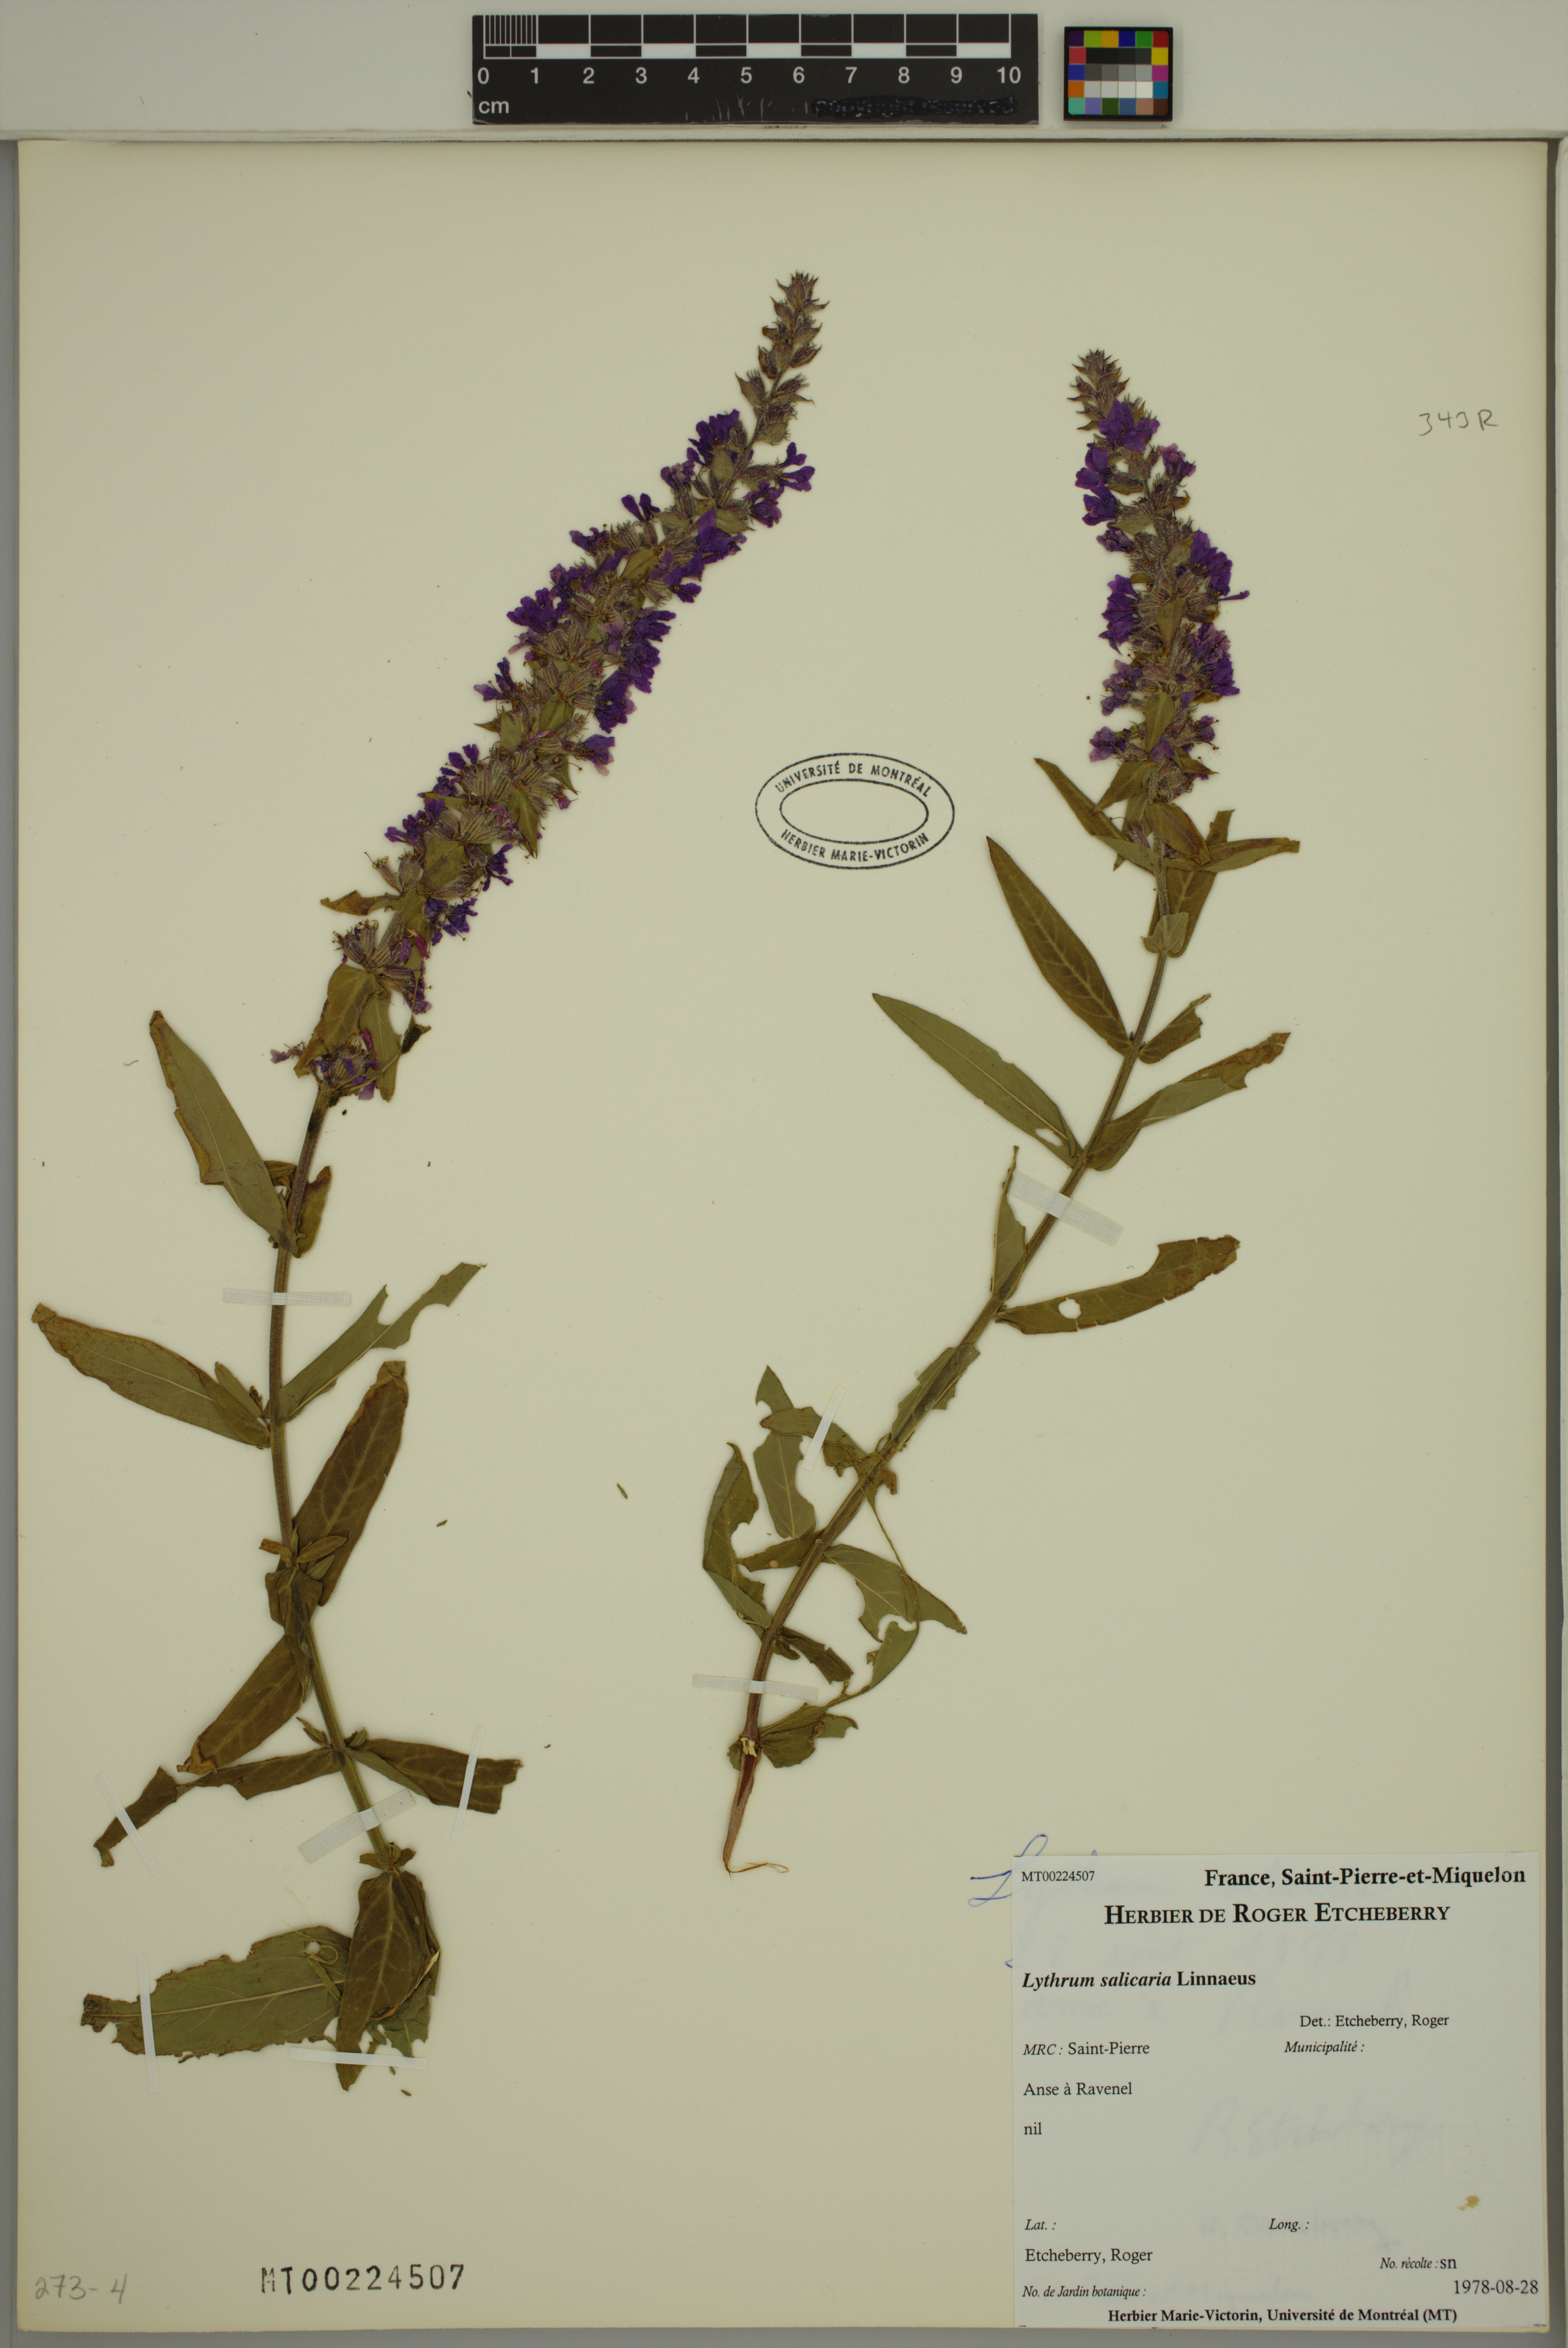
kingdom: Plantae
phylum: Tracheophyta
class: Magnoliopsida
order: Myrtales
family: Lythraceae
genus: Lythrum
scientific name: Lythrum salicaria
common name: Purple loosestrife
